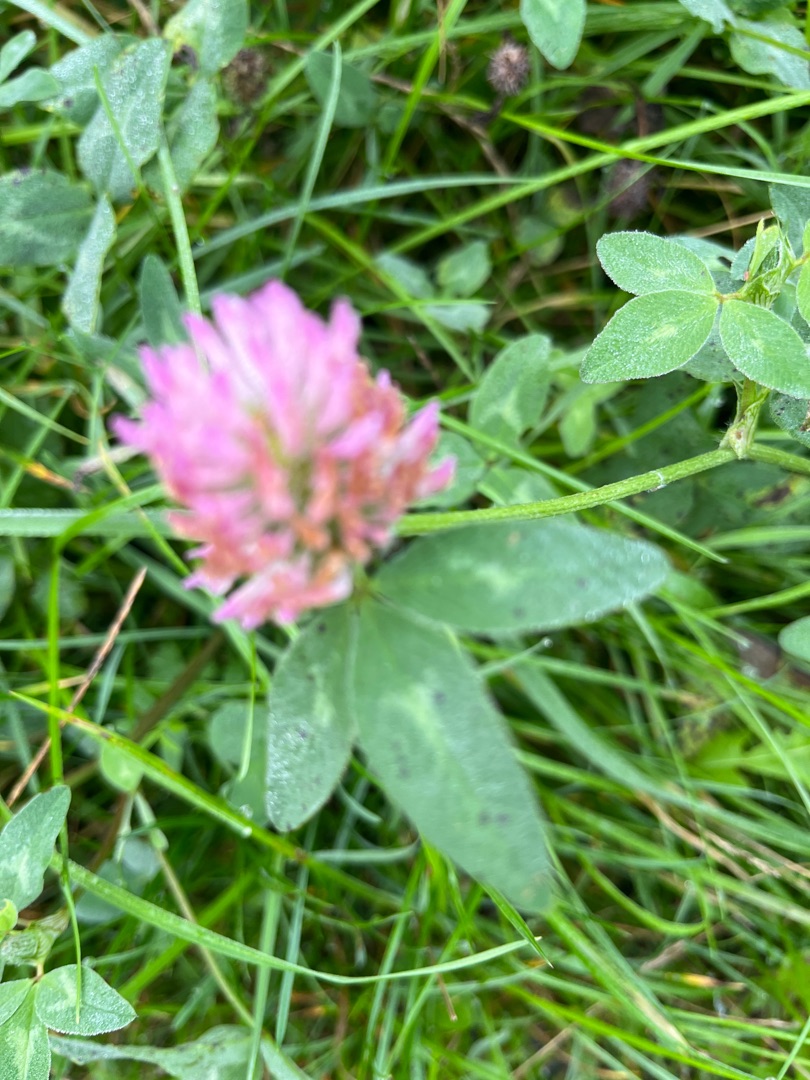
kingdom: Plantae
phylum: Tracheophyta
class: Magnoliopsida
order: Fabales
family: Fabaceae
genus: Trifolium
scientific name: Trifolium pratense
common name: Rød-kløver
